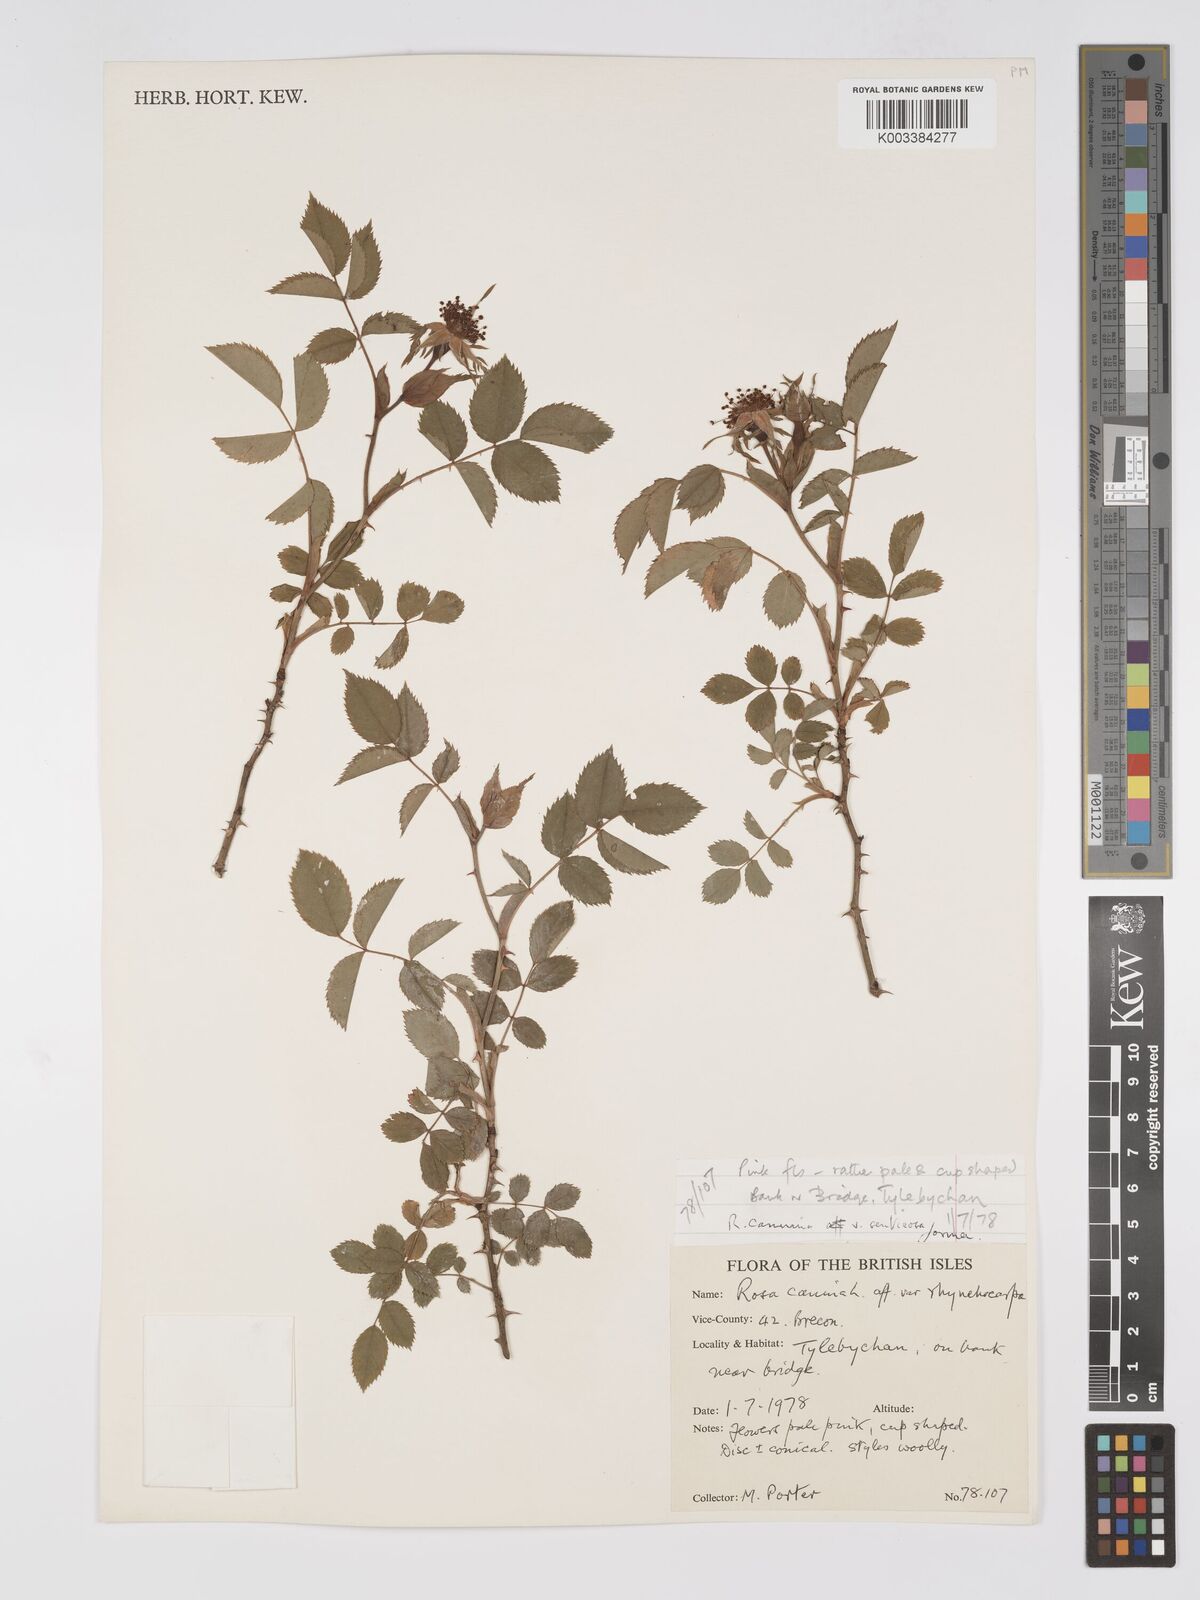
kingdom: Plantae
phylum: Tracheophyta
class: Magnoliopsida
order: Rosales
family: Rosaceae
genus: Rosa
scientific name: Rosa canina
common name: Dog rose
